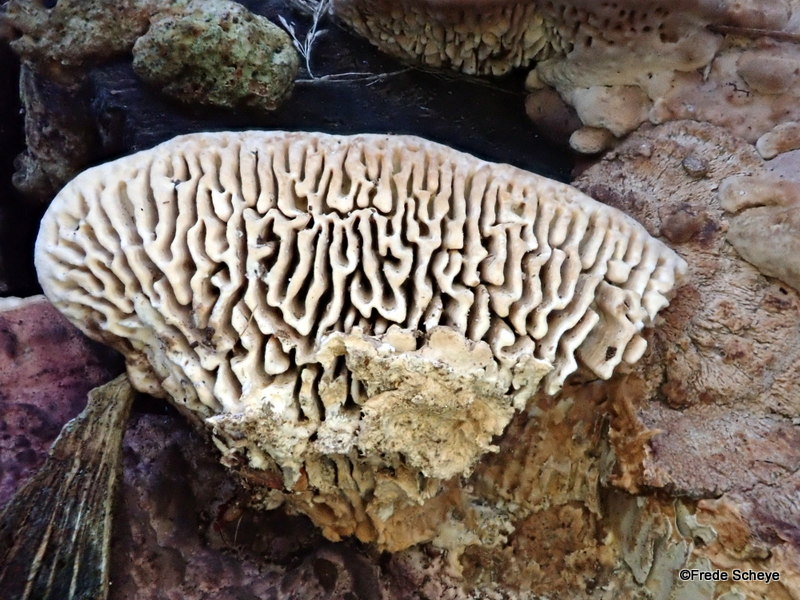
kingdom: Fungi
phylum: Basidiomycota
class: Agaricomycetes
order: Polyporales
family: Fomitopsidaceae
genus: Daedalea
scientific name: Daedalea quercina
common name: ege-labyrintsvamp
